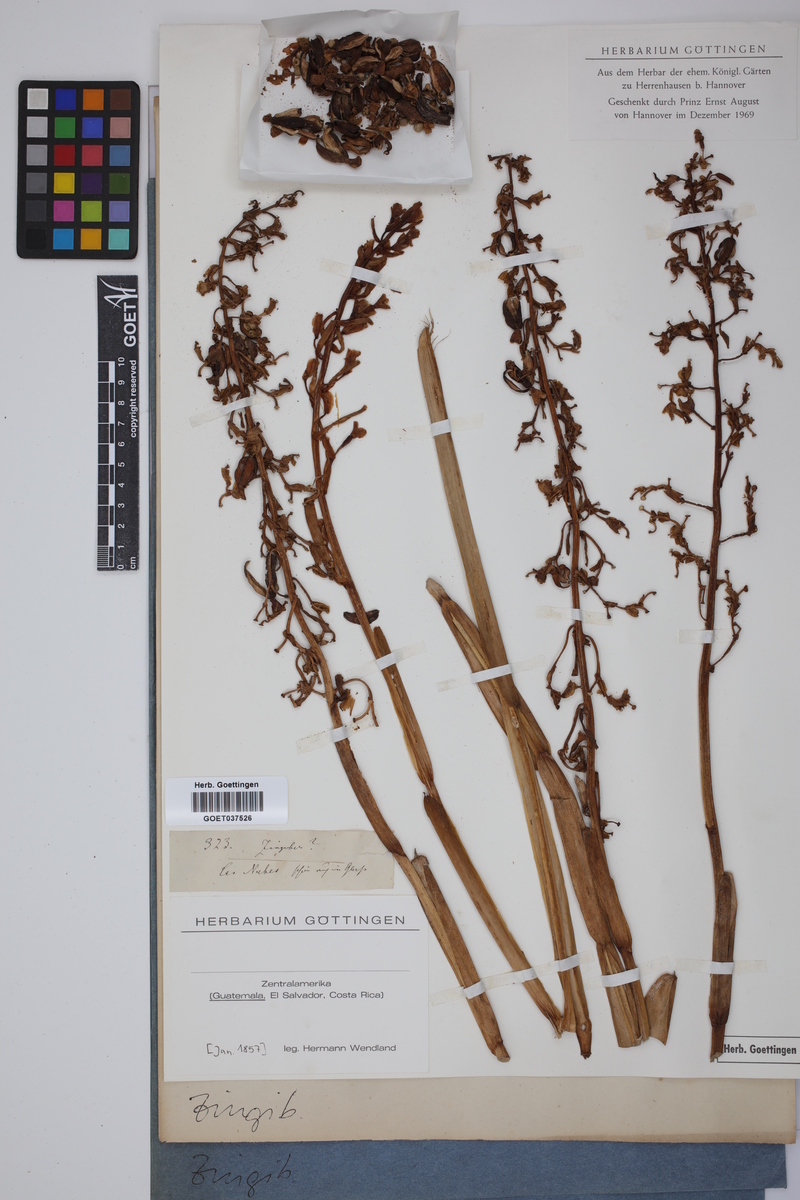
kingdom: Plantae
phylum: Tracheophyta
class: Liliopsida
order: Zingiberales
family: Zingiberaceae
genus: Zingiber
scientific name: Zingiber
